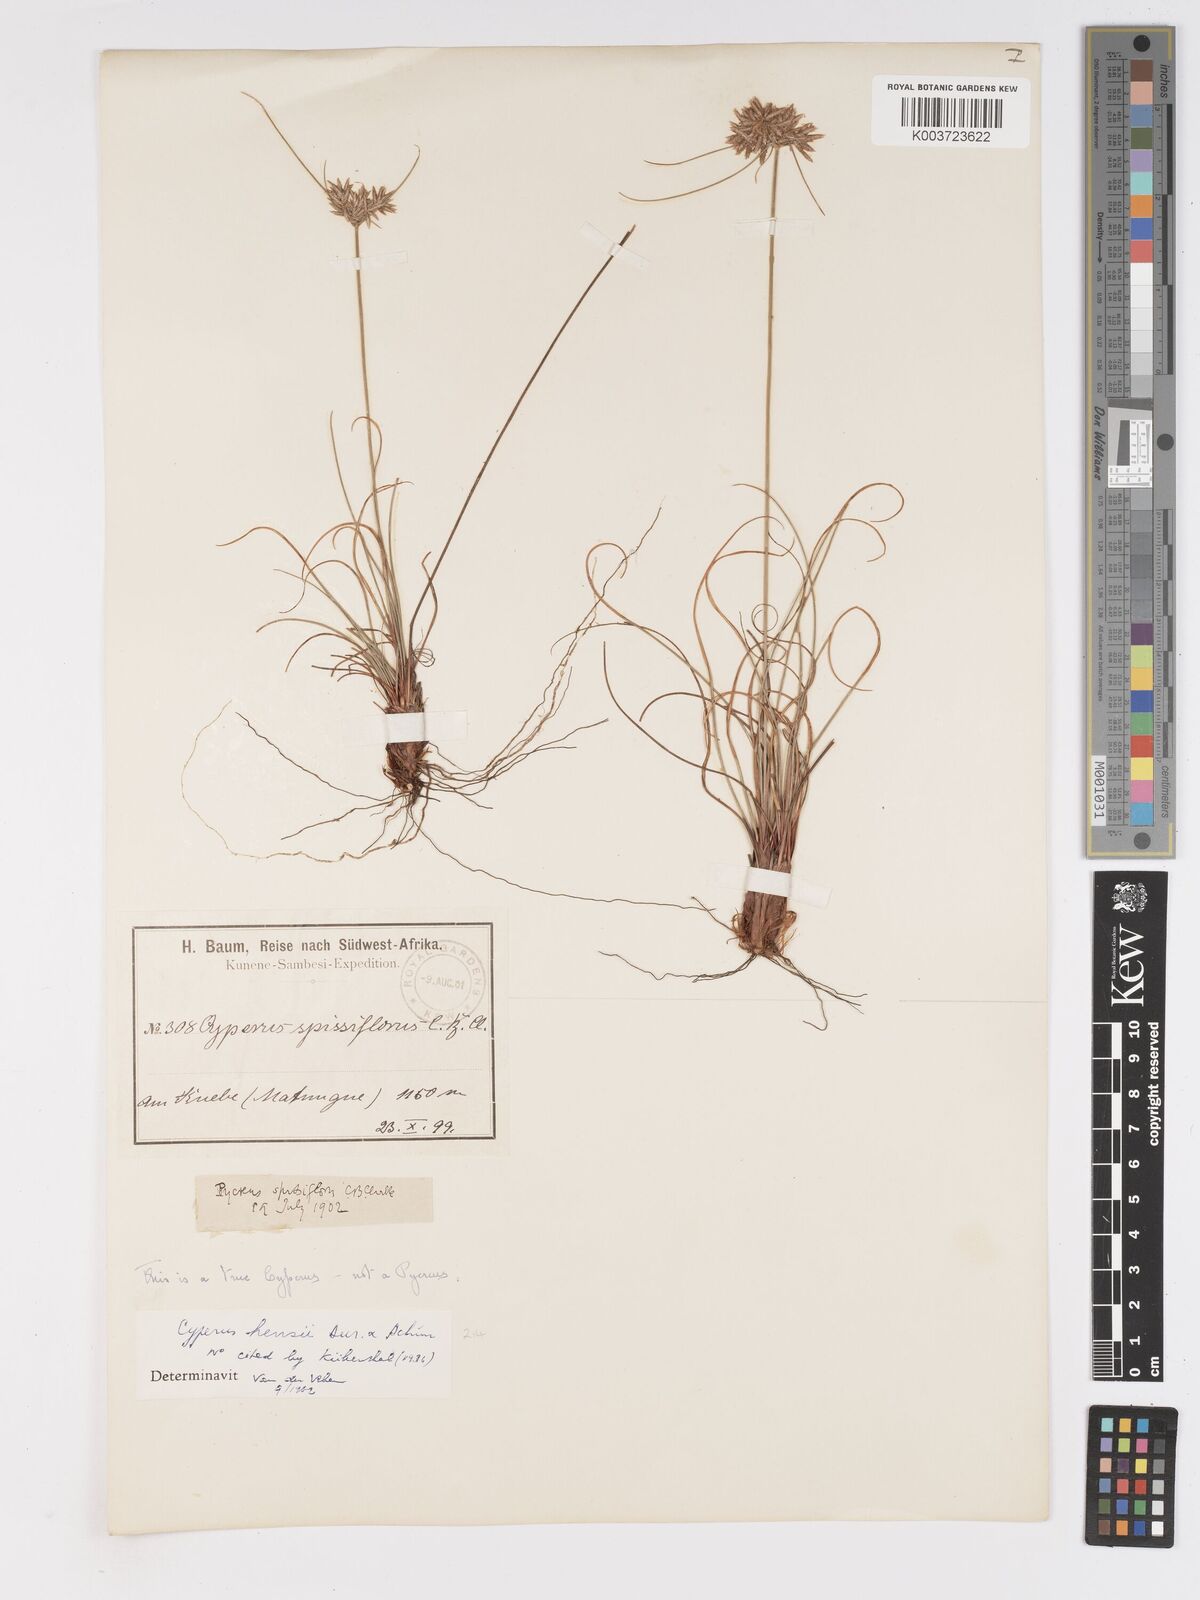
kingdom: Plantae
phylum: Tracheophyta
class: Liliopsida
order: Poales
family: Cyperaceae
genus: Cyperus
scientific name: Cyperus
